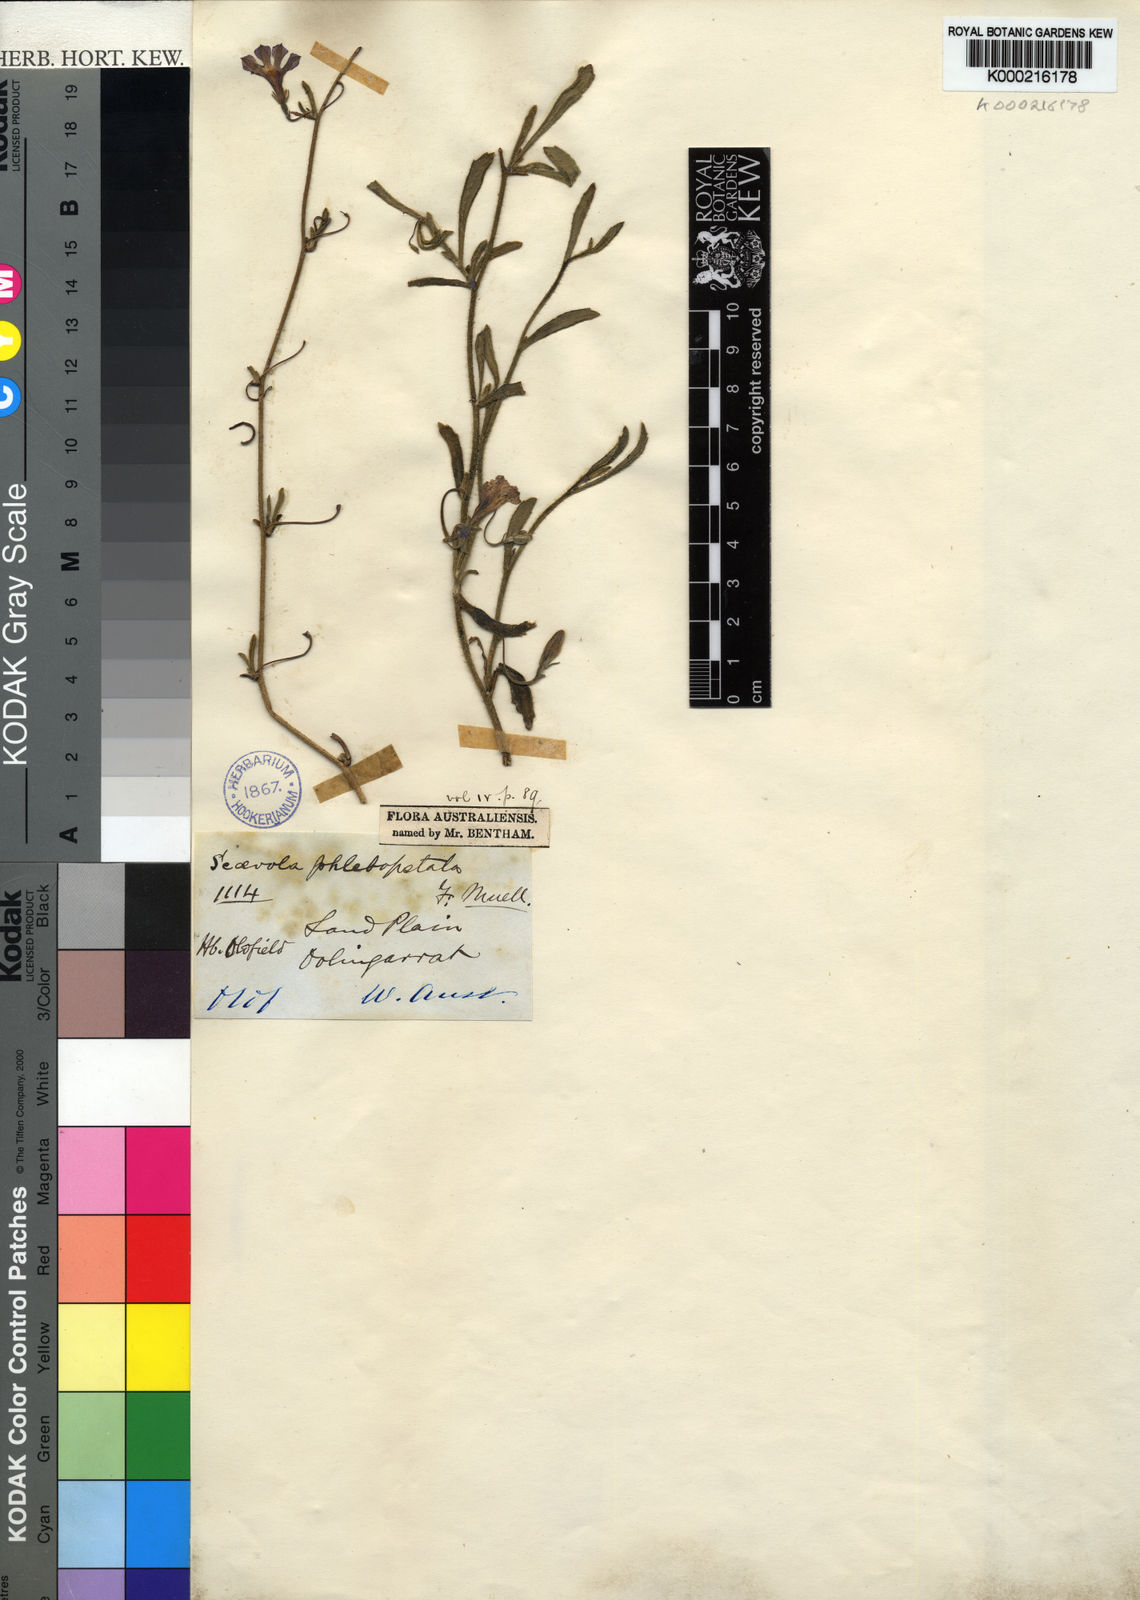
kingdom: Plantae
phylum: Tracheophyta
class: Magnoliopsida
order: Asterales
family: Goodeniaceae
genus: Scaevola
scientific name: Scaevola phlebopetala
